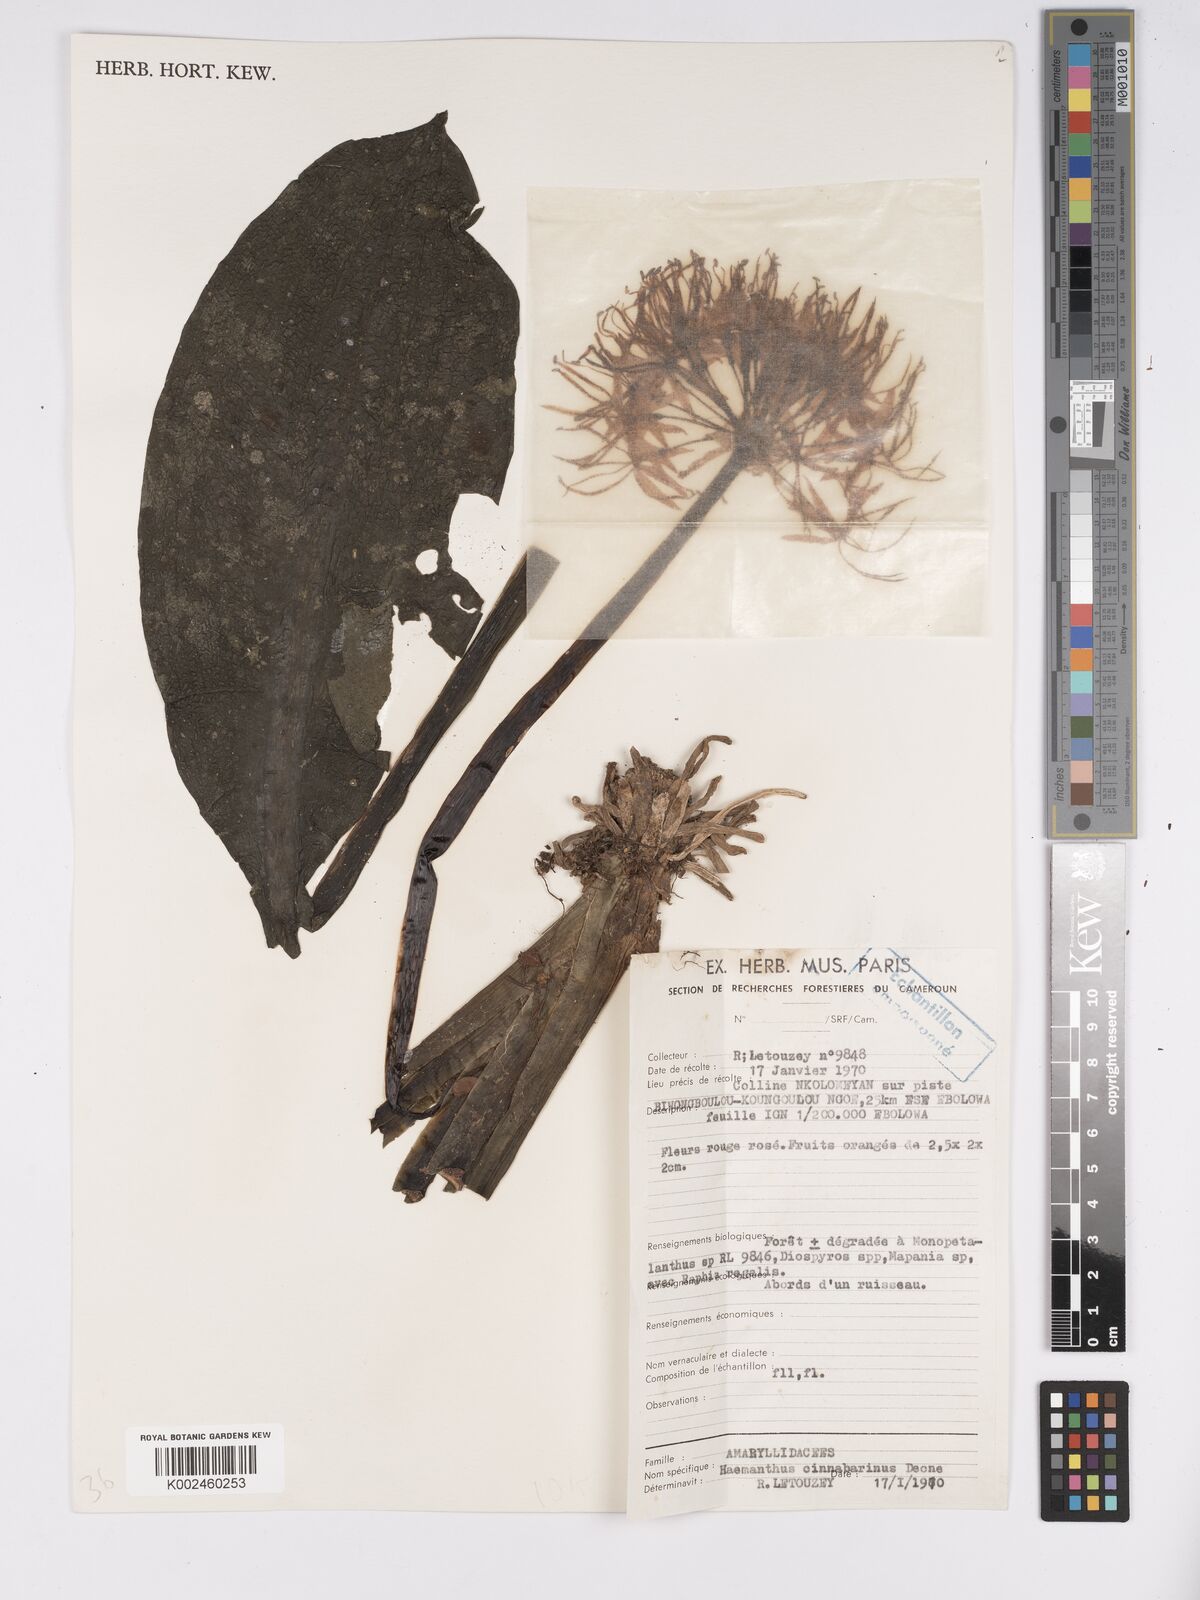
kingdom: Plantae
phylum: Tracheophyta
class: Liliopsida
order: Asparagales
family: Amaryllidaceae
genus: Scadoxus
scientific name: Scadoxus cinnabarinus
